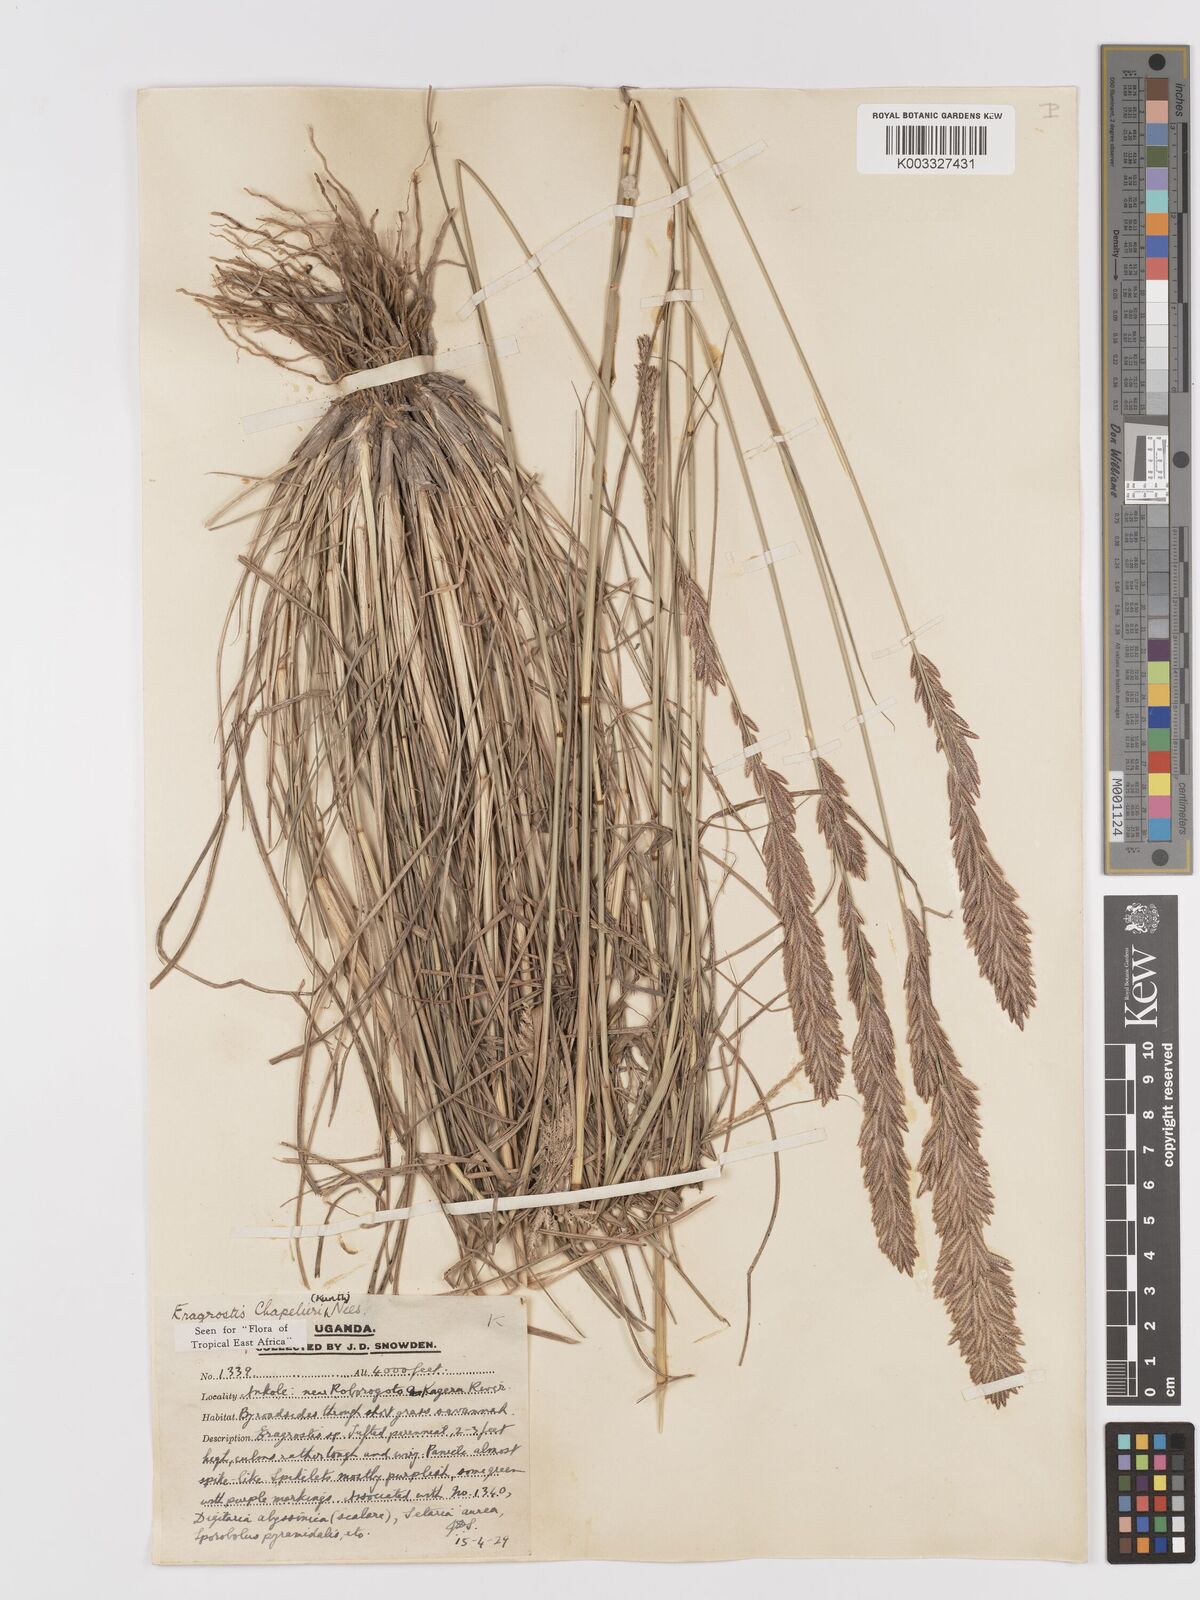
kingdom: Plantae
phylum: Tracheophyta
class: Liliopsida
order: Poales
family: Poaceae
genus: Eragrostis
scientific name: Eragrostis chapelieri
